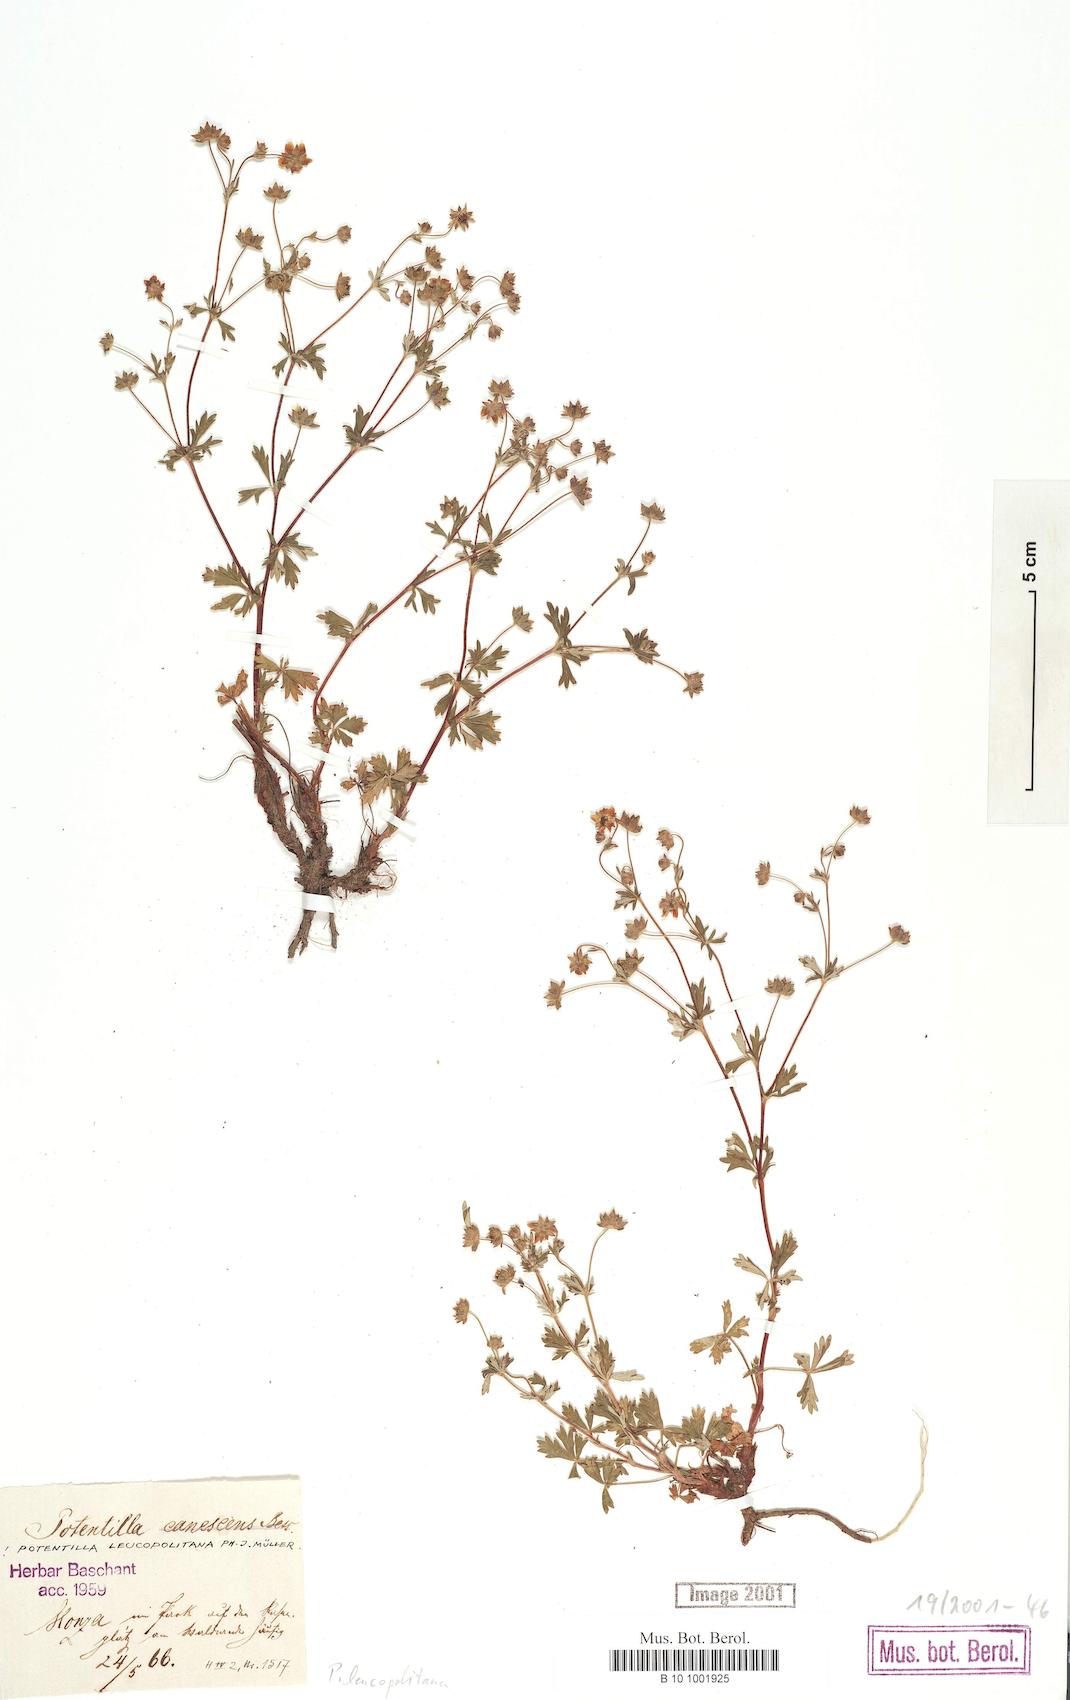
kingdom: Plantae
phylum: Tracheophyta
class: Magnoliopsida
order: Rosales
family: Rosaceae
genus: Potentilla
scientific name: Potentilla leucopolitana
